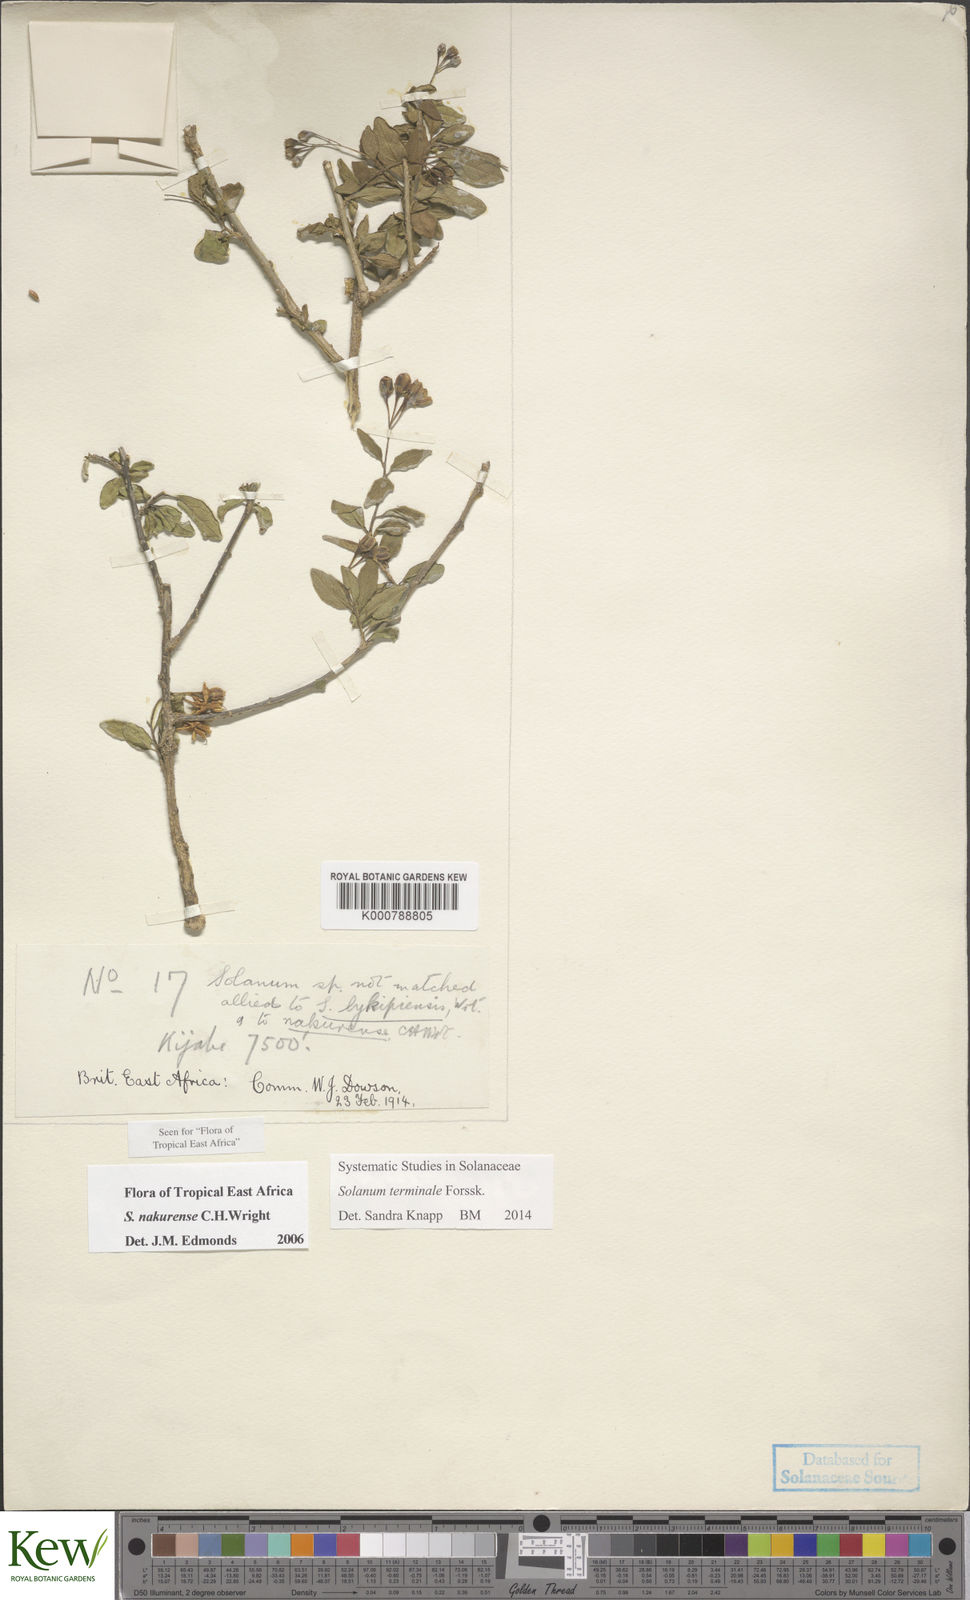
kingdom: Plantae
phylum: Tracheophyta
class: Magnoliopsida
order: Solanales
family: Solanaceae
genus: Solanum
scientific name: Solanum terminale
